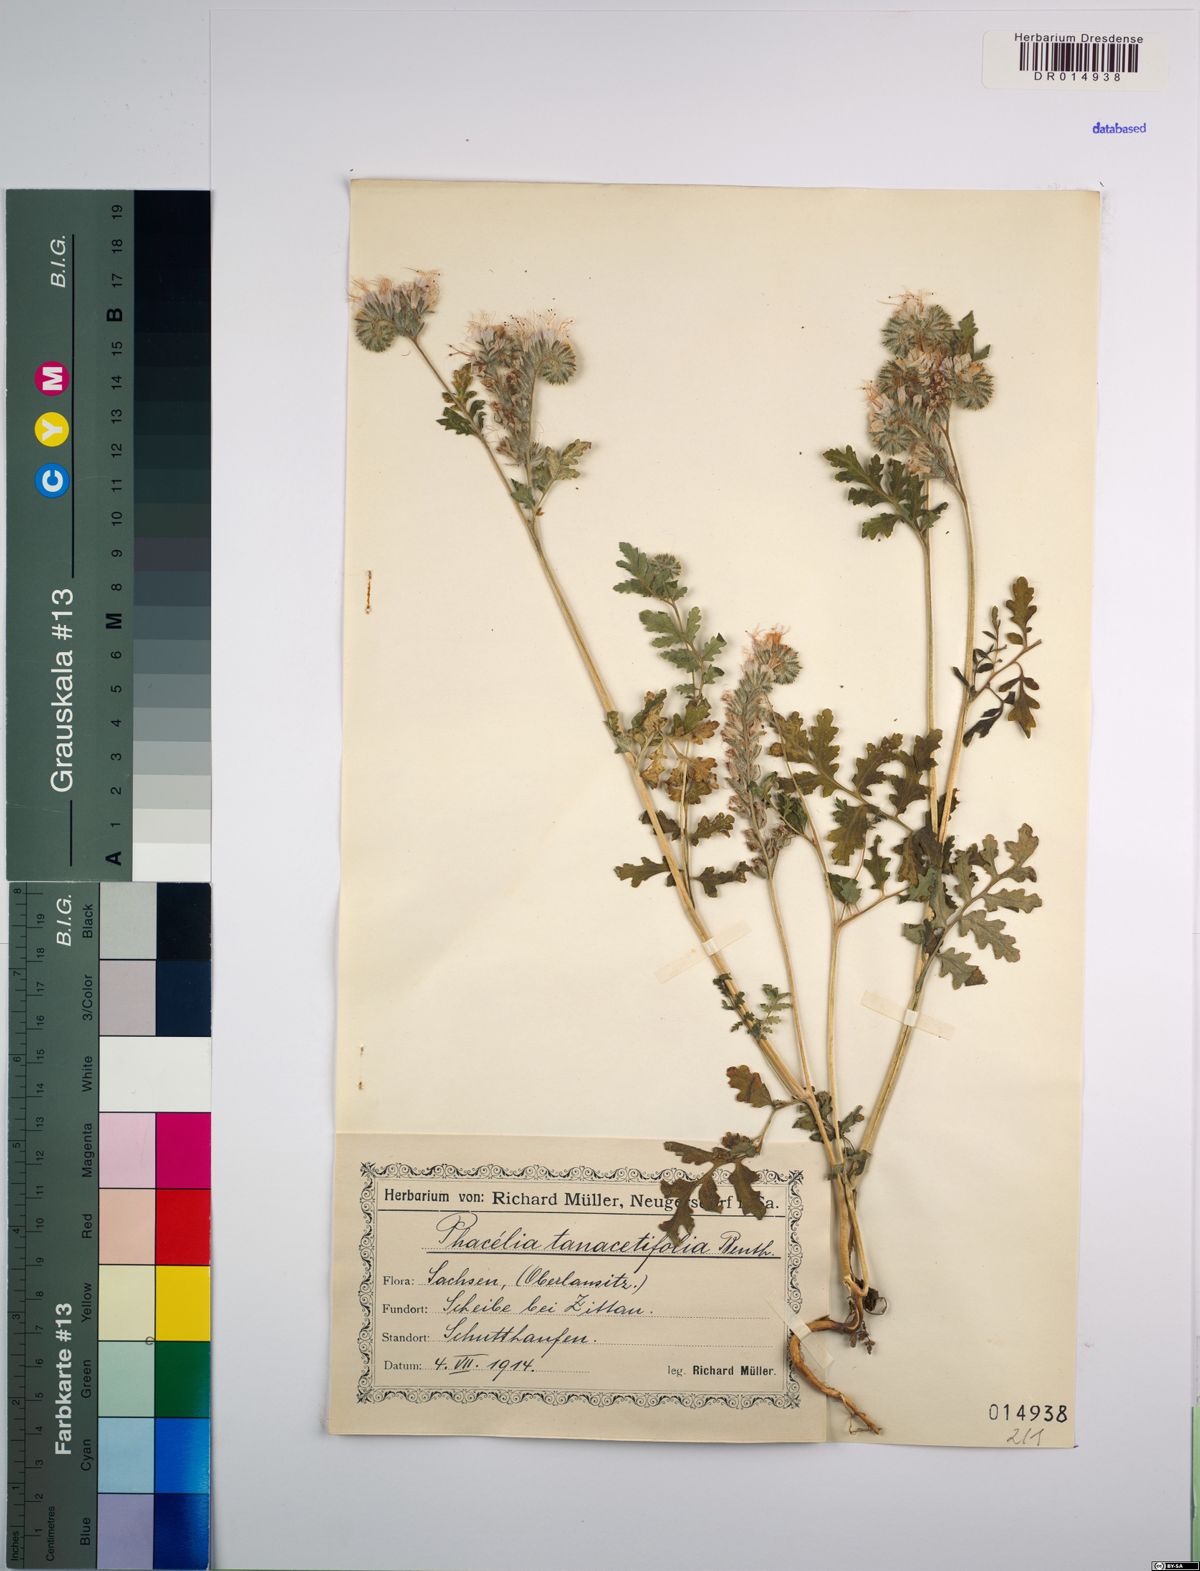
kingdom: Plantae
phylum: Tracheophyta
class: Magnoliopsida
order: Boraginales
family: Hydrophyllaceae
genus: Phacelia
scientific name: Phacelia tanacetifolia
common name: Phacelia
